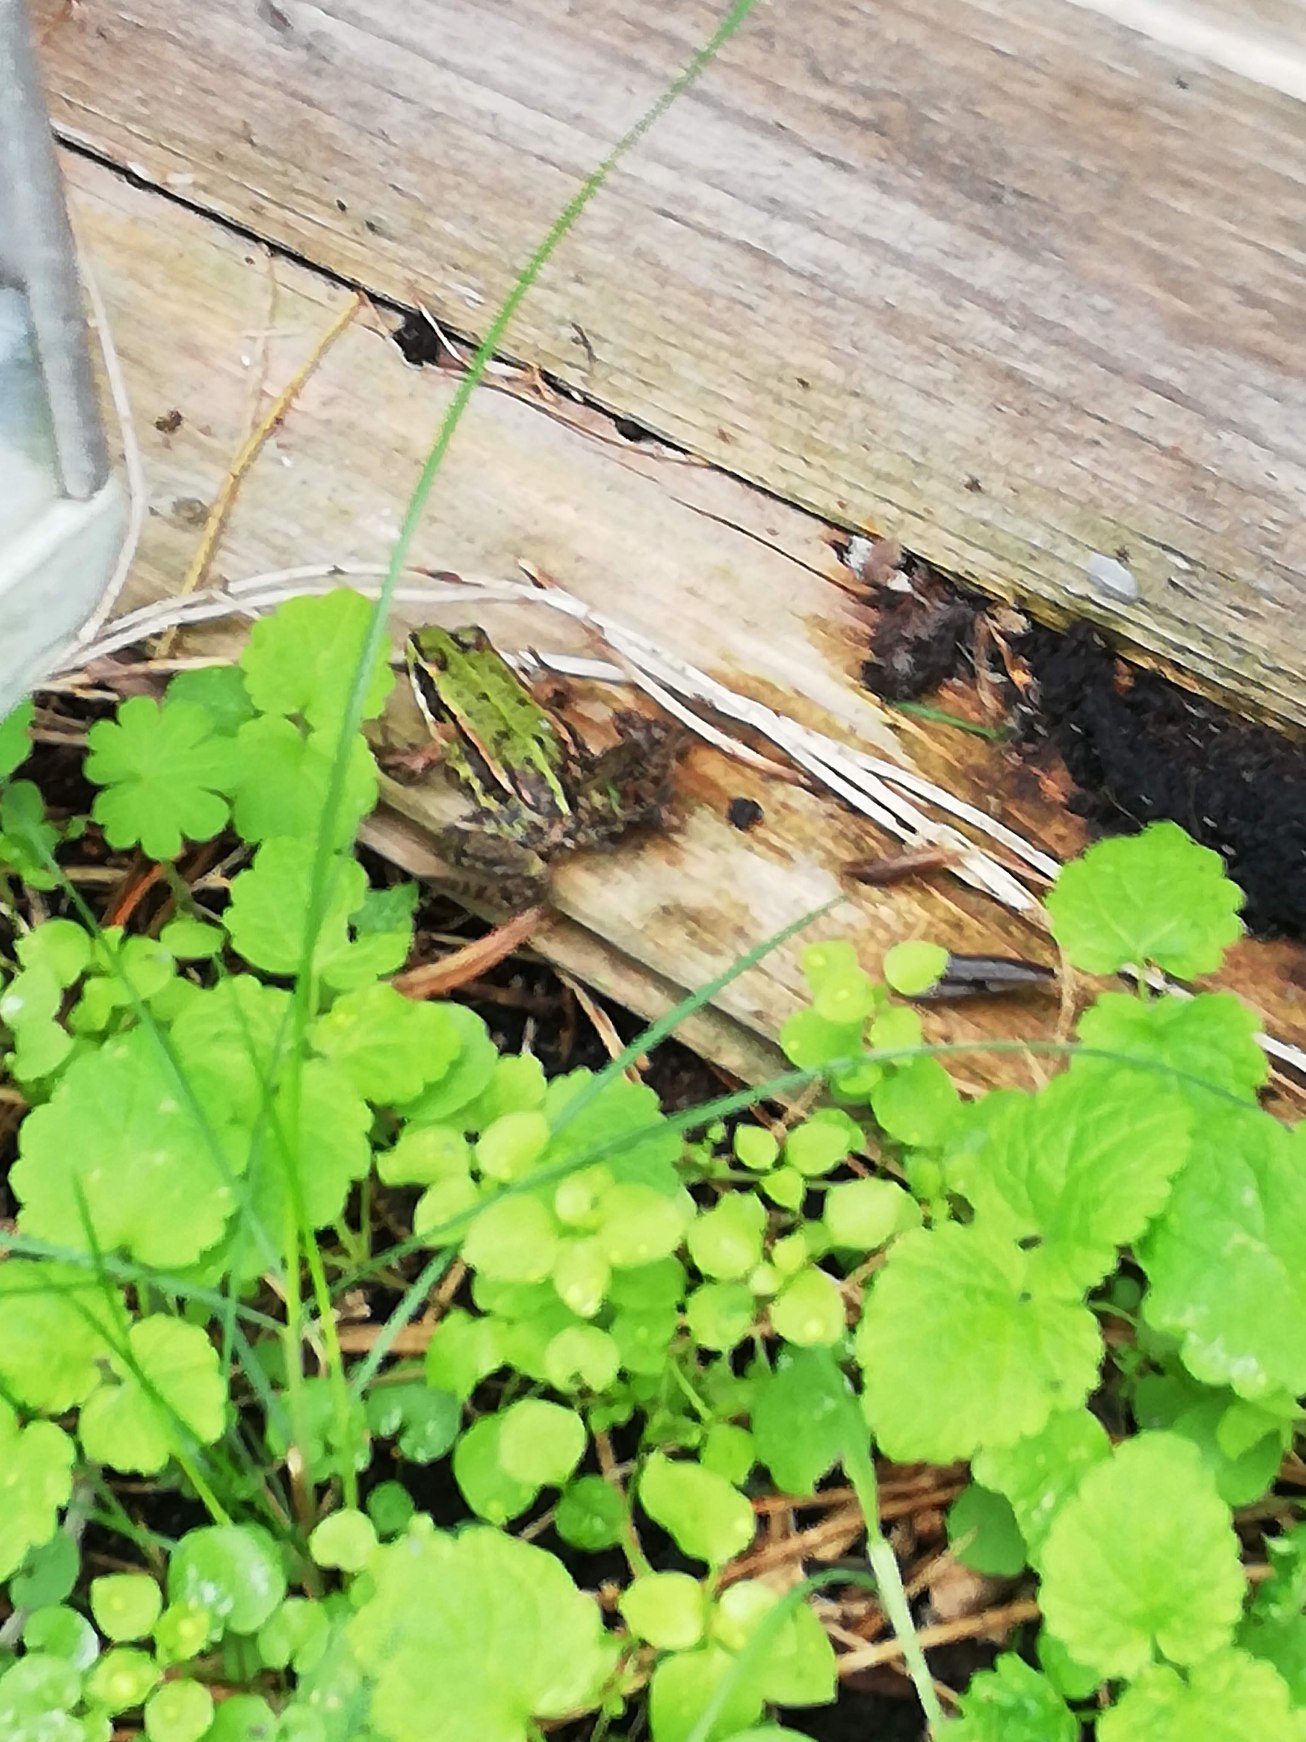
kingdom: Animalia
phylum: Chordata
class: Amphibia
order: Anura
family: Ranidae
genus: Pelophylax
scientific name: Pelophylax lessonae
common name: Grøn frø
